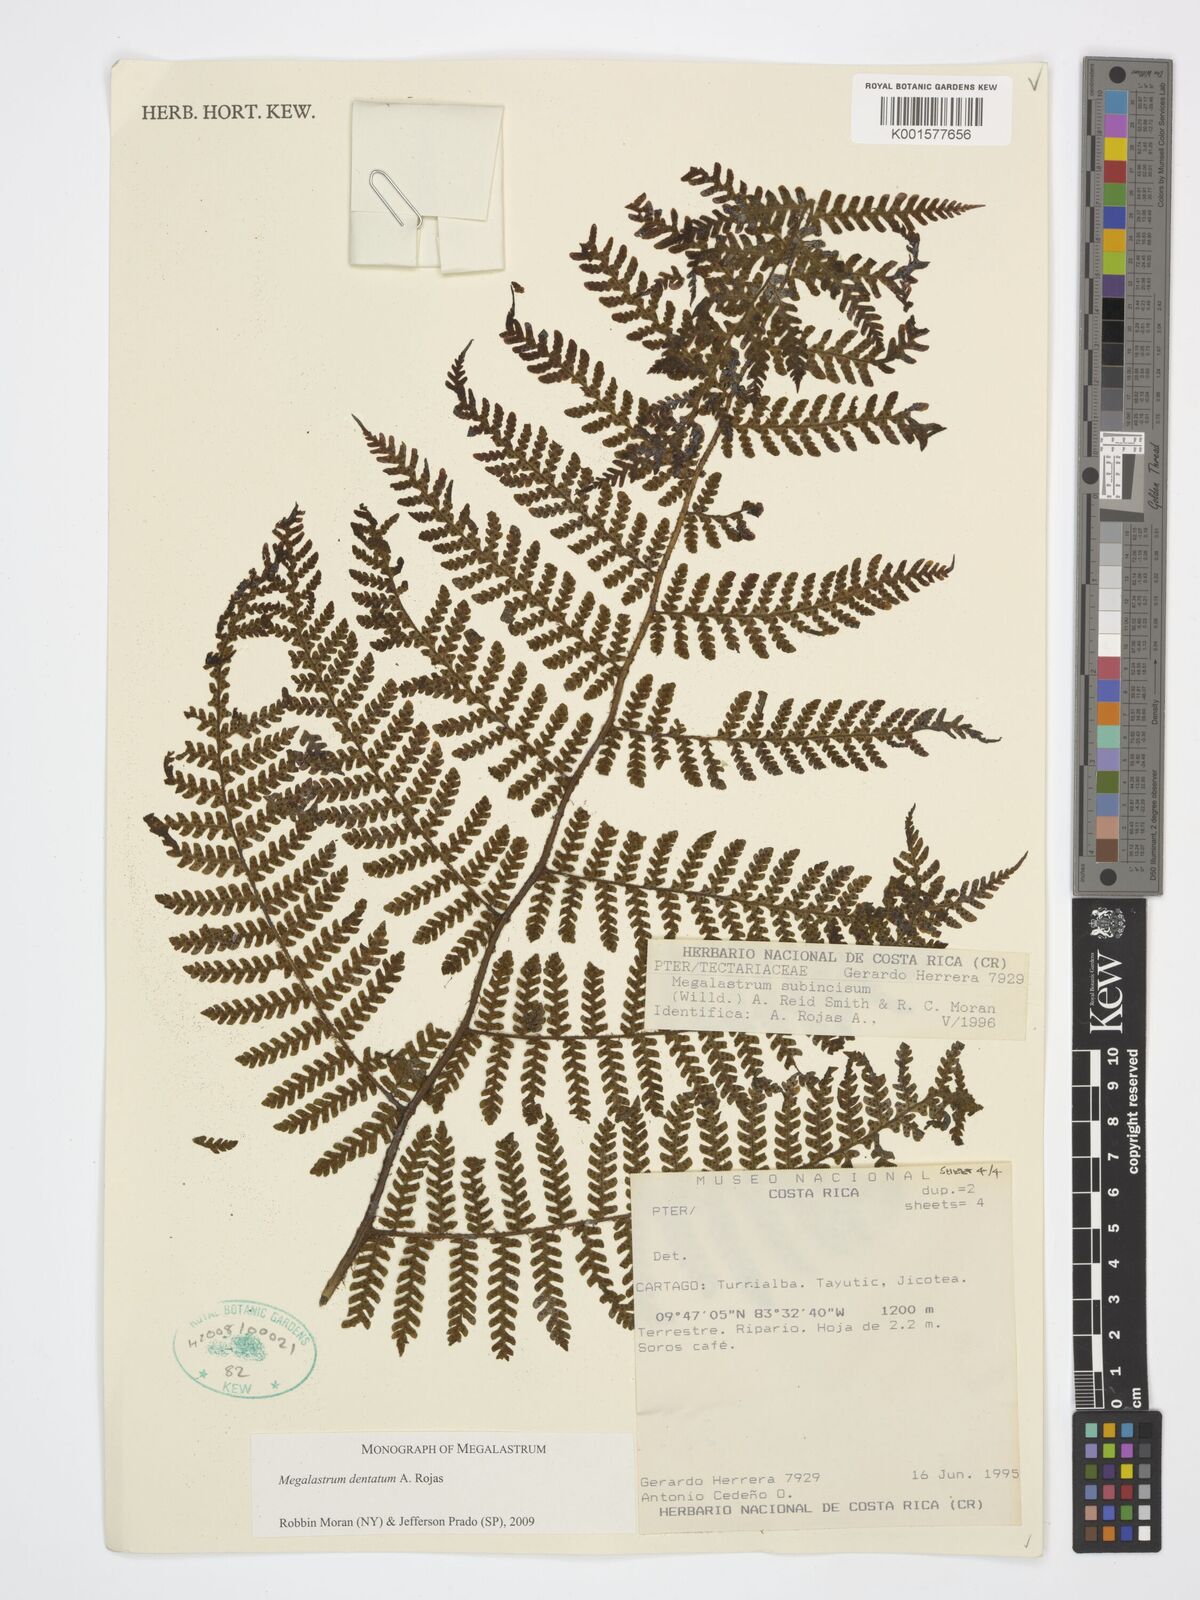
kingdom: Plantae
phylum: Tracheophyta
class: Polypodiopsida
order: Polypodiales
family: Dryopteridaceae
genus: Megalastrum
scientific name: Megalastrum dentatum
